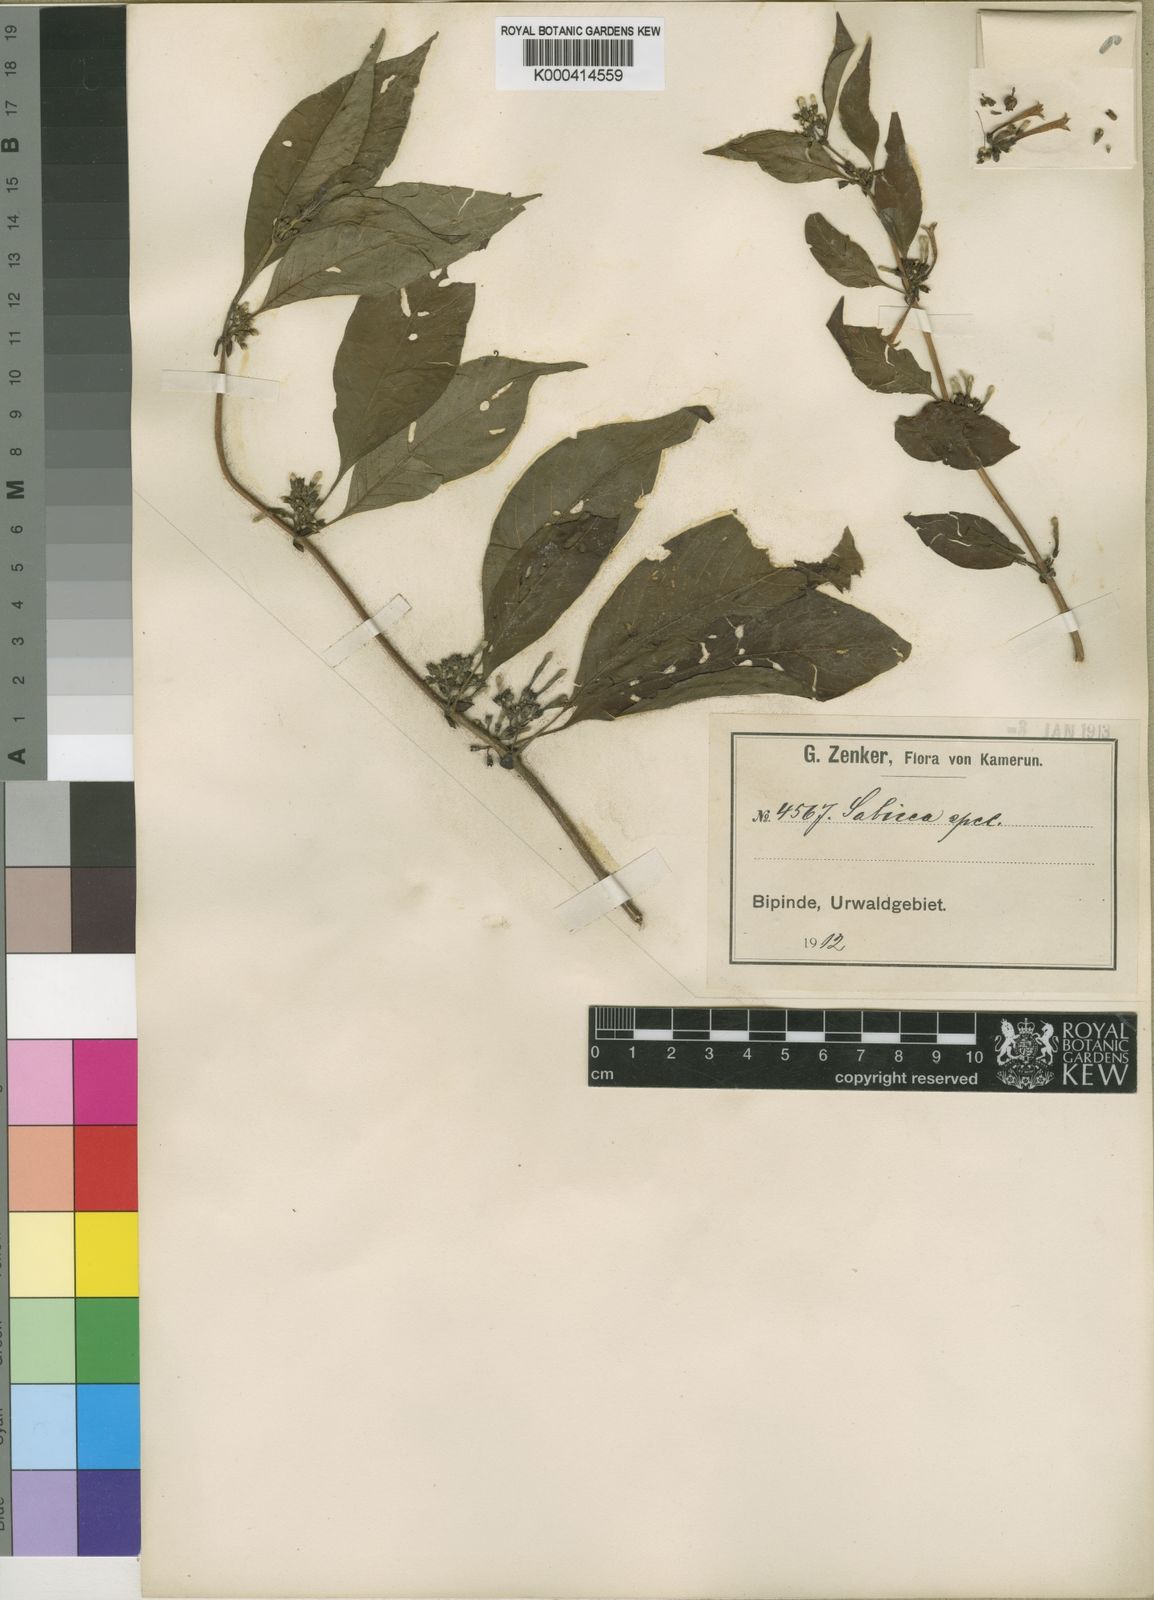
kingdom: Plantae
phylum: Tracheophyta
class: Magnoliopsida
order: Gentianales
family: Rubiaceae
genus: Sabicea
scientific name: Sabicea laxa
